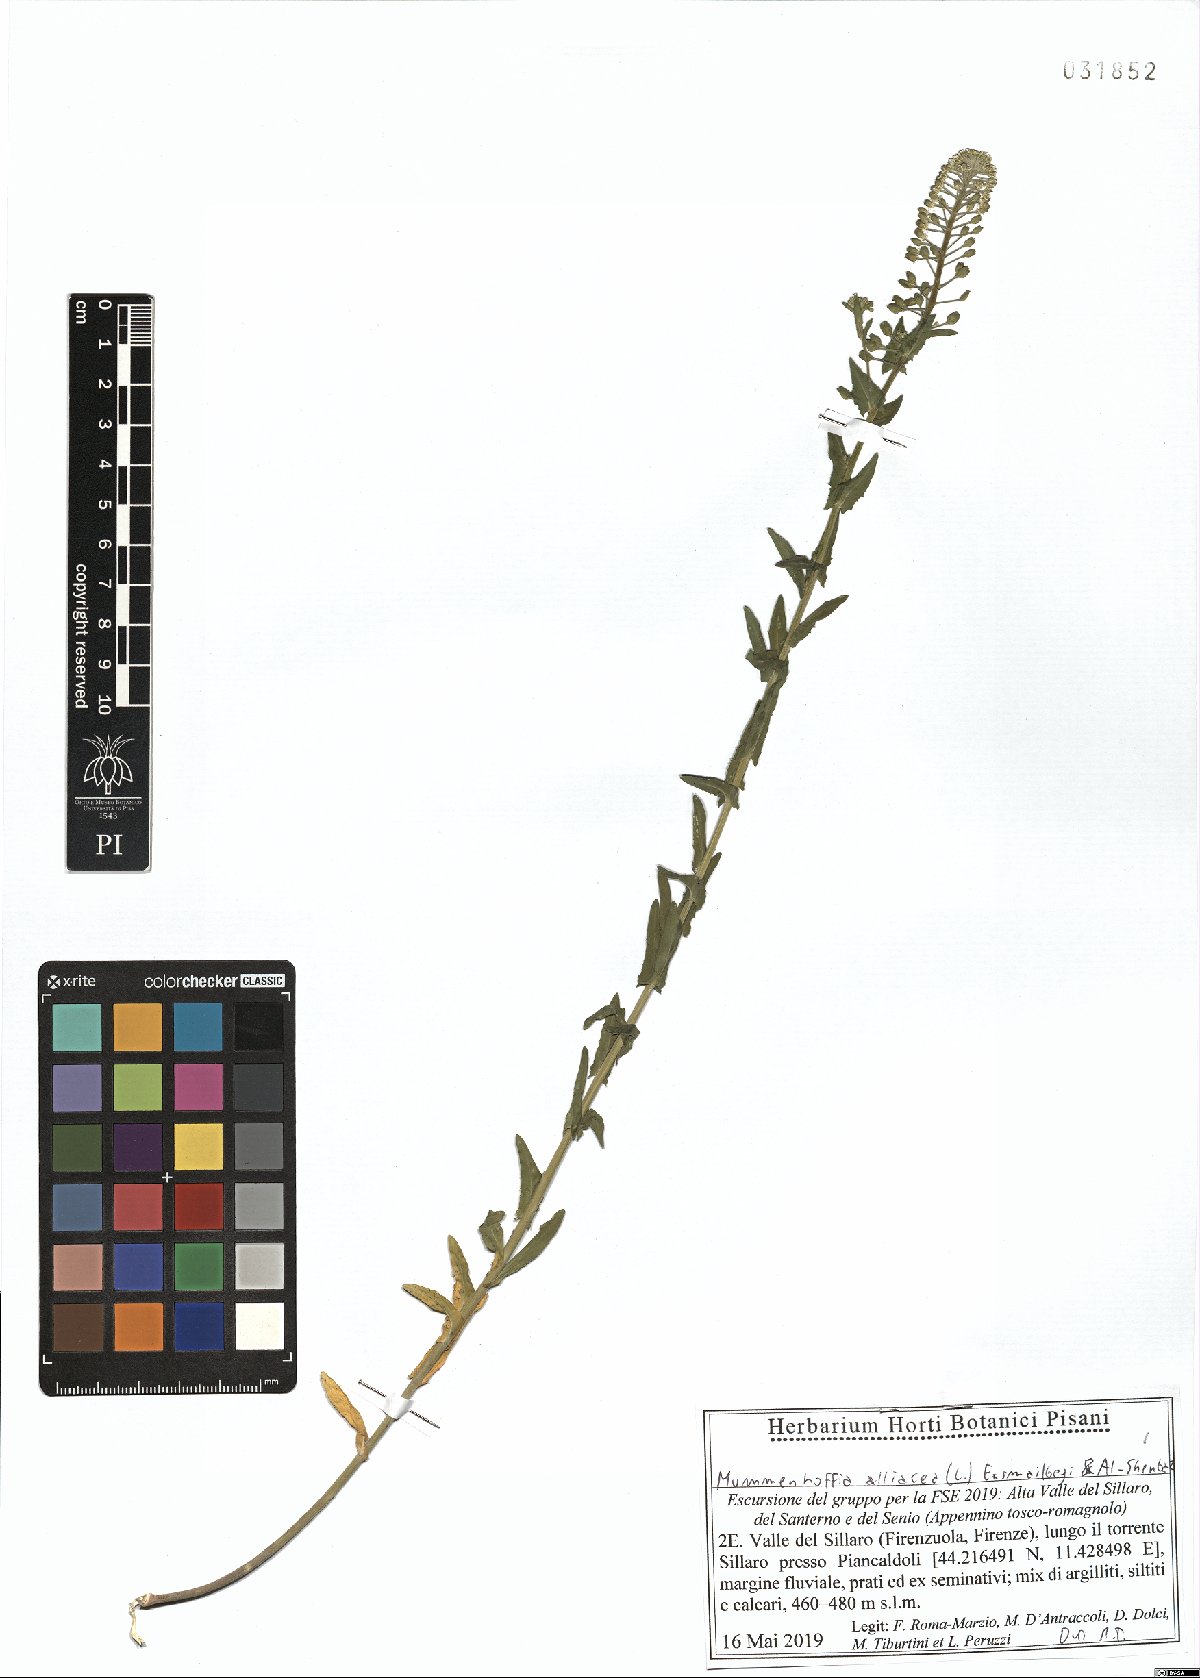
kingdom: Plantae
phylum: Tracheophyta
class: Magnoliopsida
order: Brassicales
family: Brassicaceae
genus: Mummenhoffia
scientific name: Mummenhoffia alliacea
